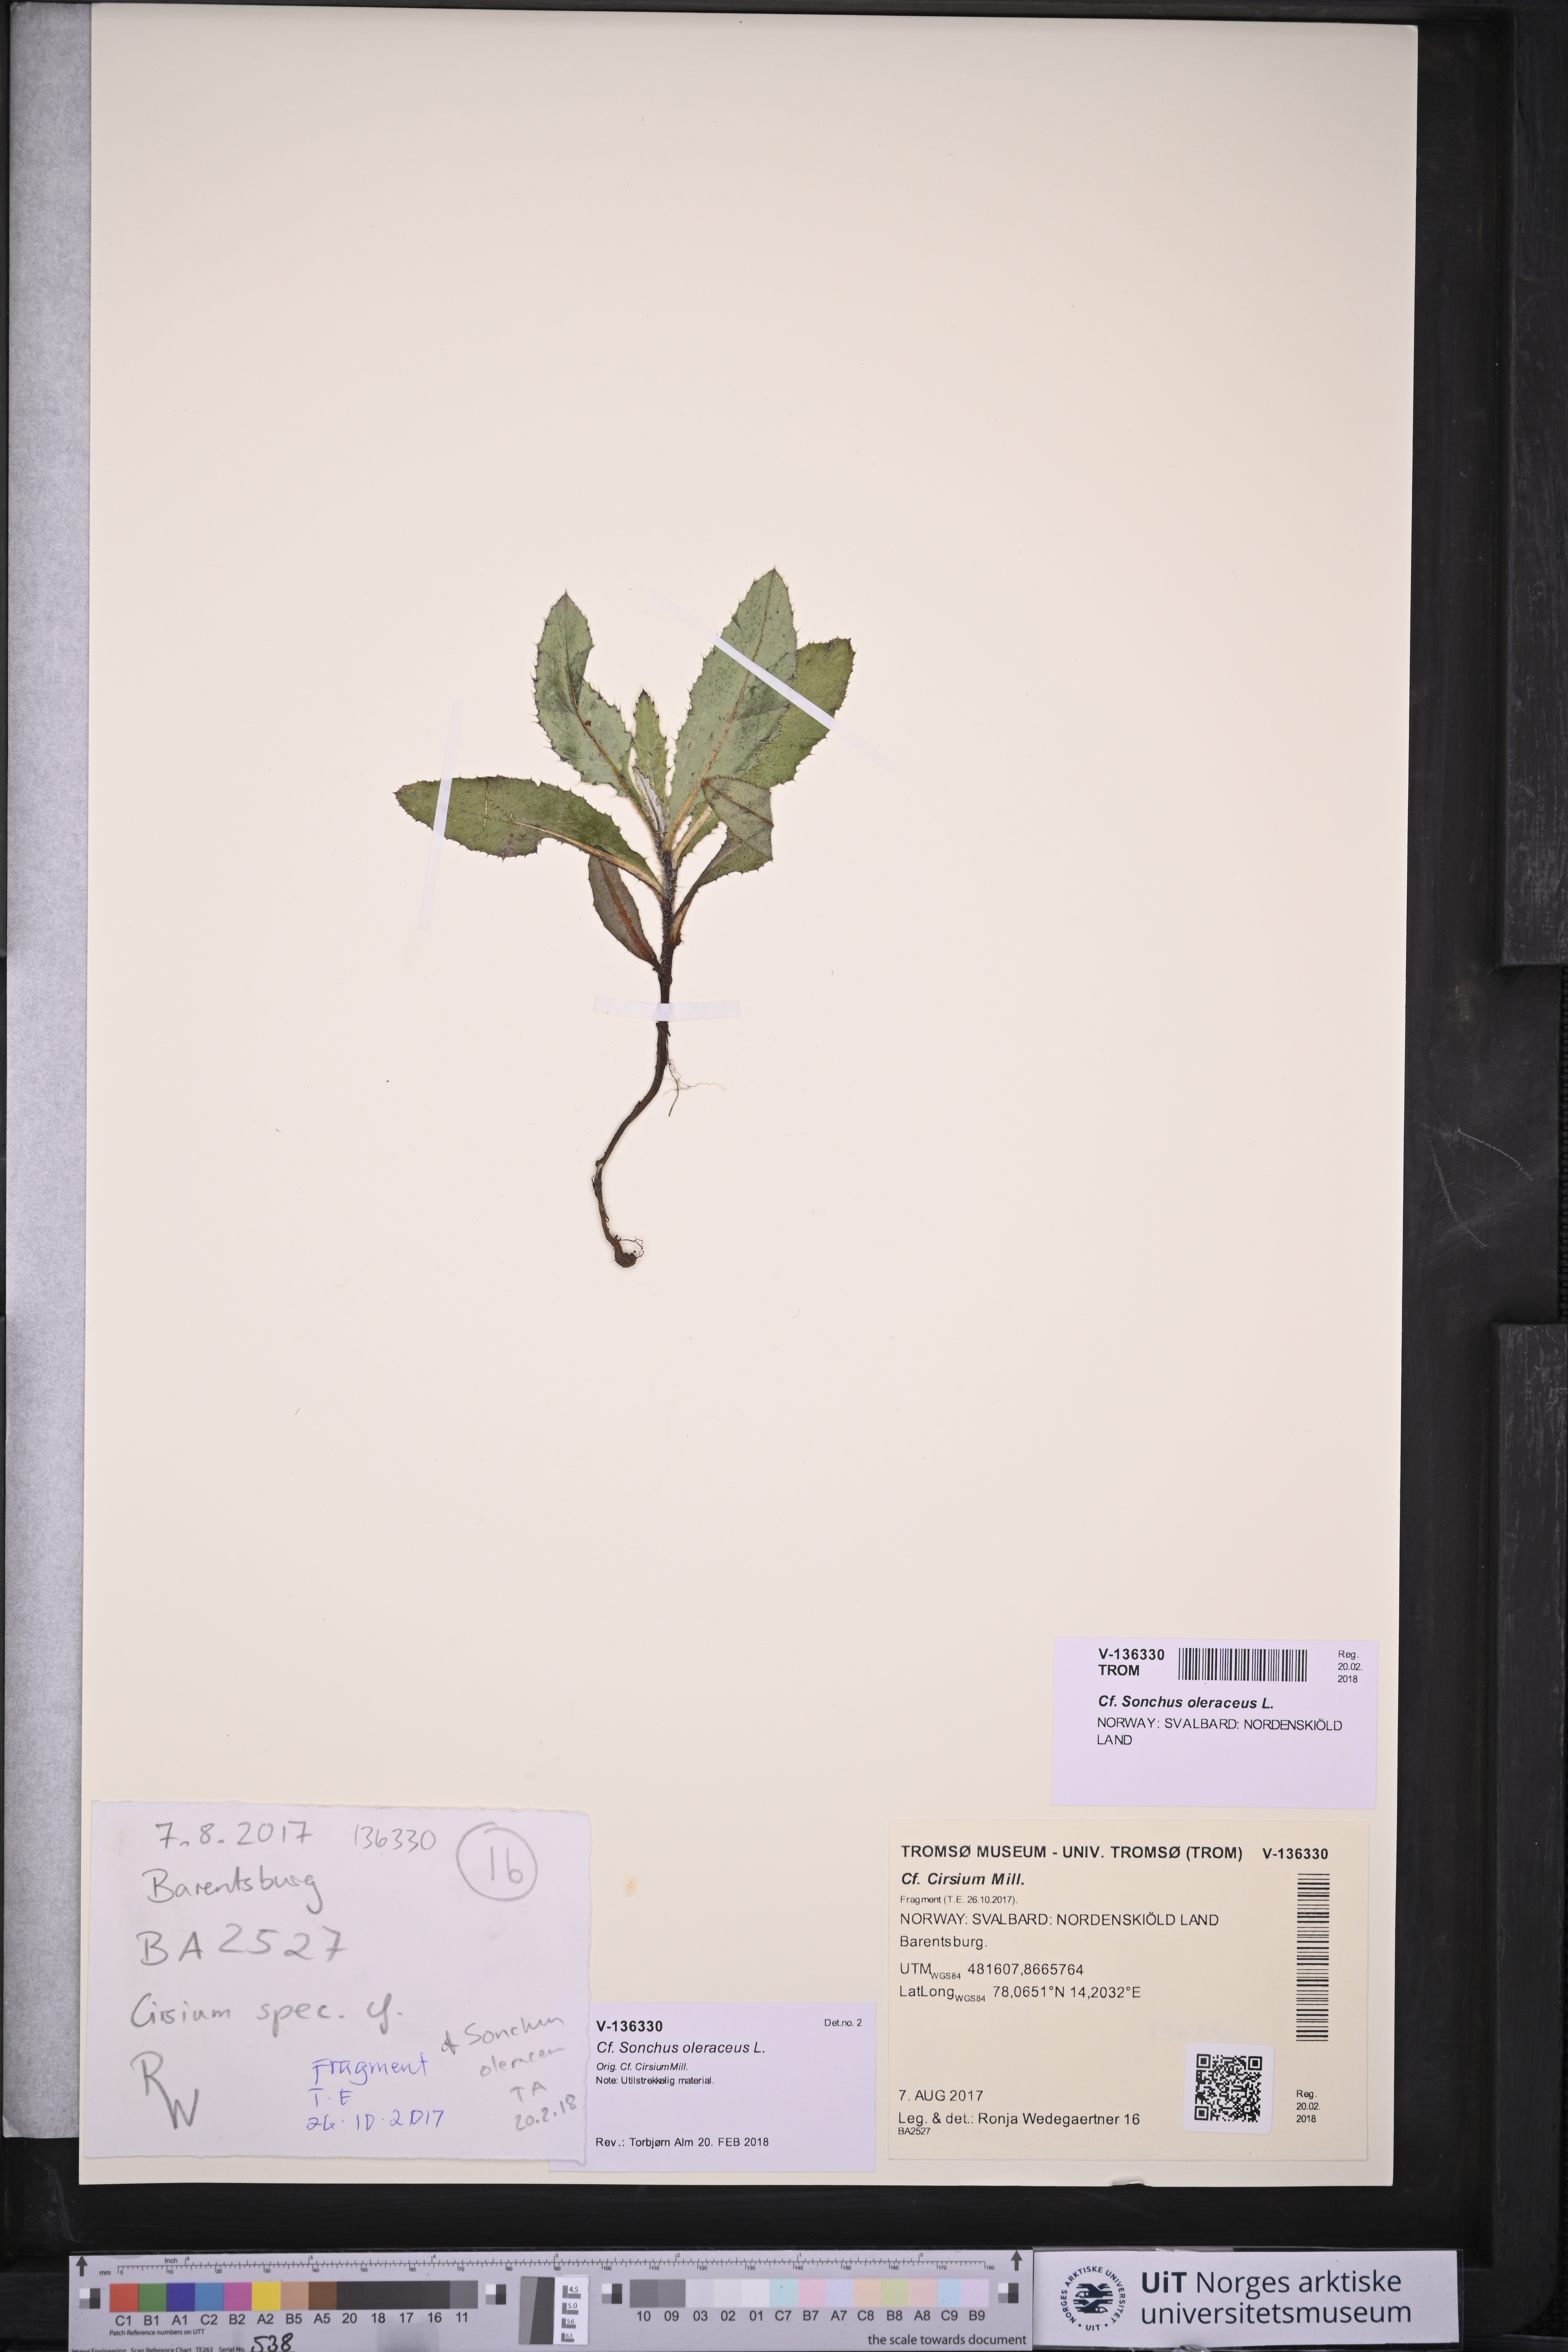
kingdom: Plantae
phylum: Tracheophyta
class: Magnoliopsida
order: Asterales
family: Asteraceae
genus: Sonchus
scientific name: Sonchus oleraceus
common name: Common sowthistle
